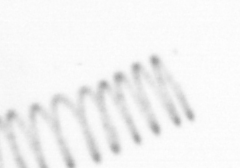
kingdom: Chromista
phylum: Ochrophyta
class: Bacillariophyceae
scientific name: Bacillariophyceae
